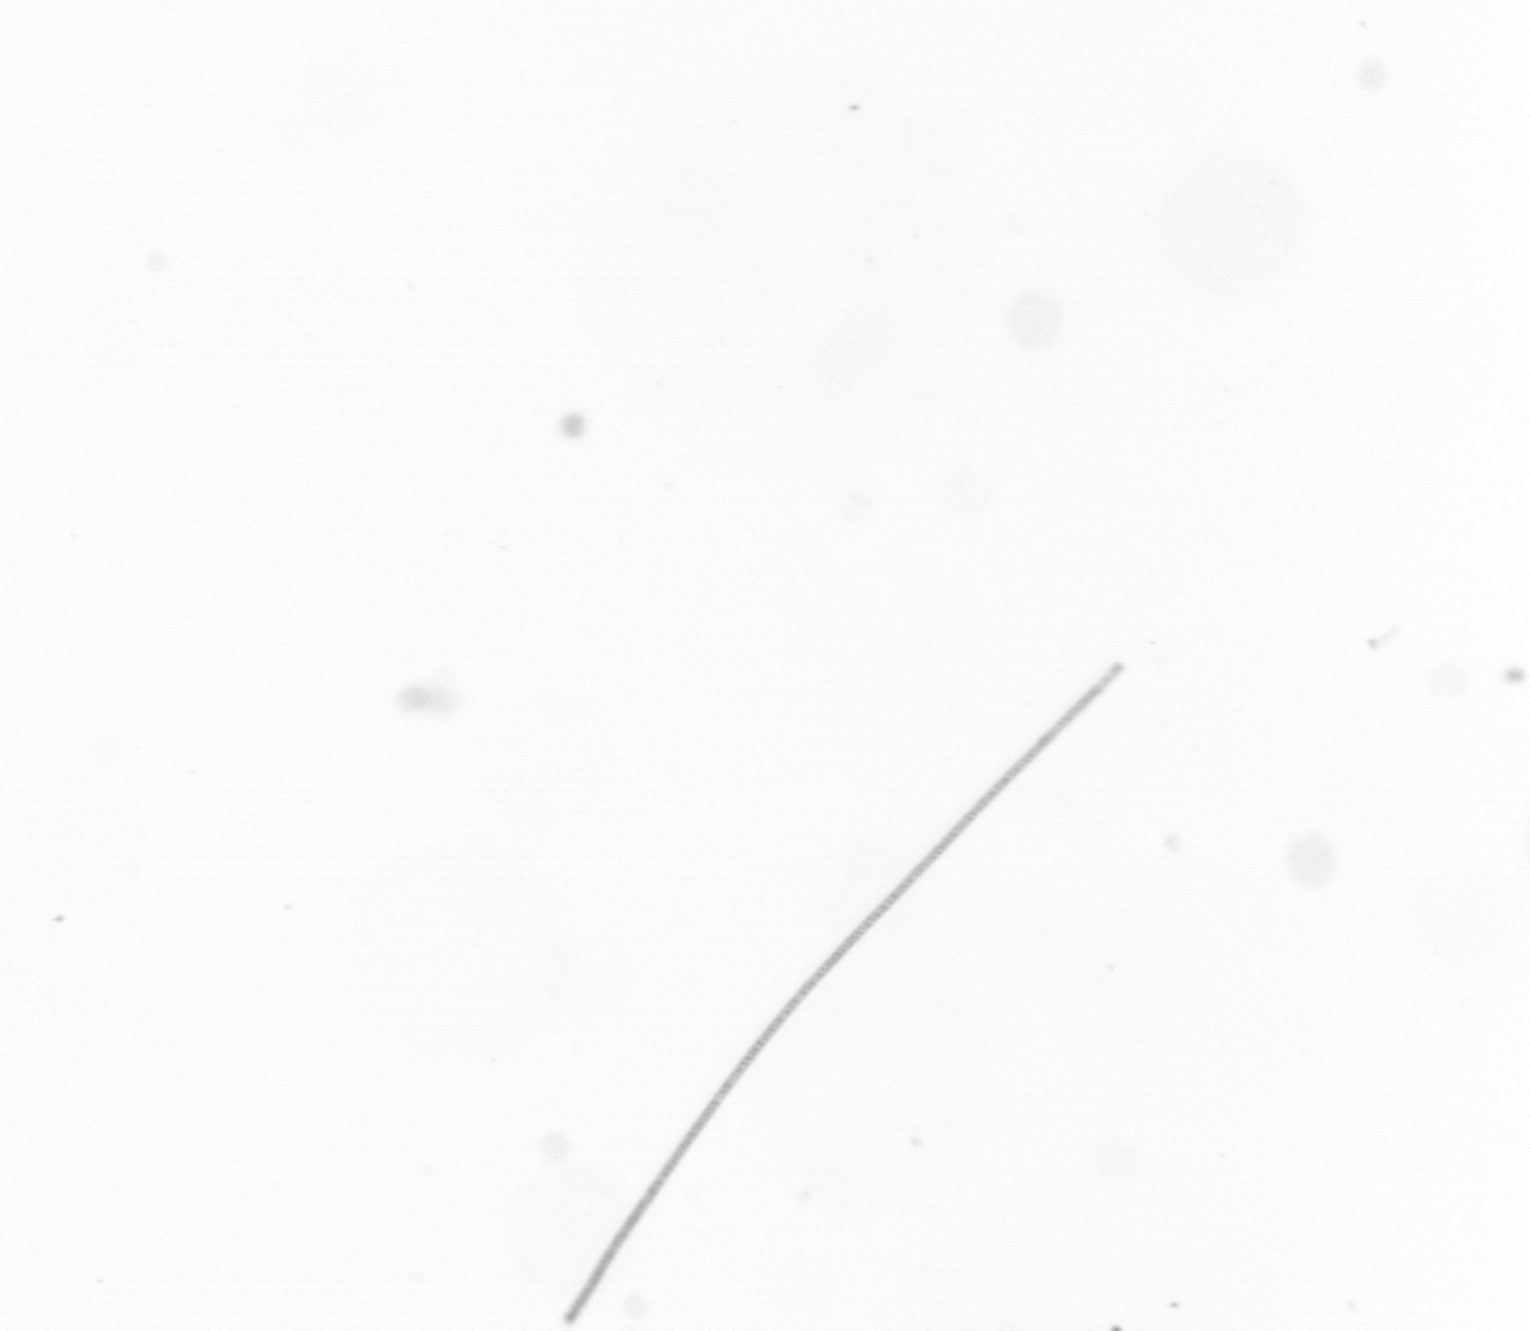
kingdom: Chromista
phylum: Ochrophyta
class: Bacillariophyceae
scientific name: Bacillariophyceae
